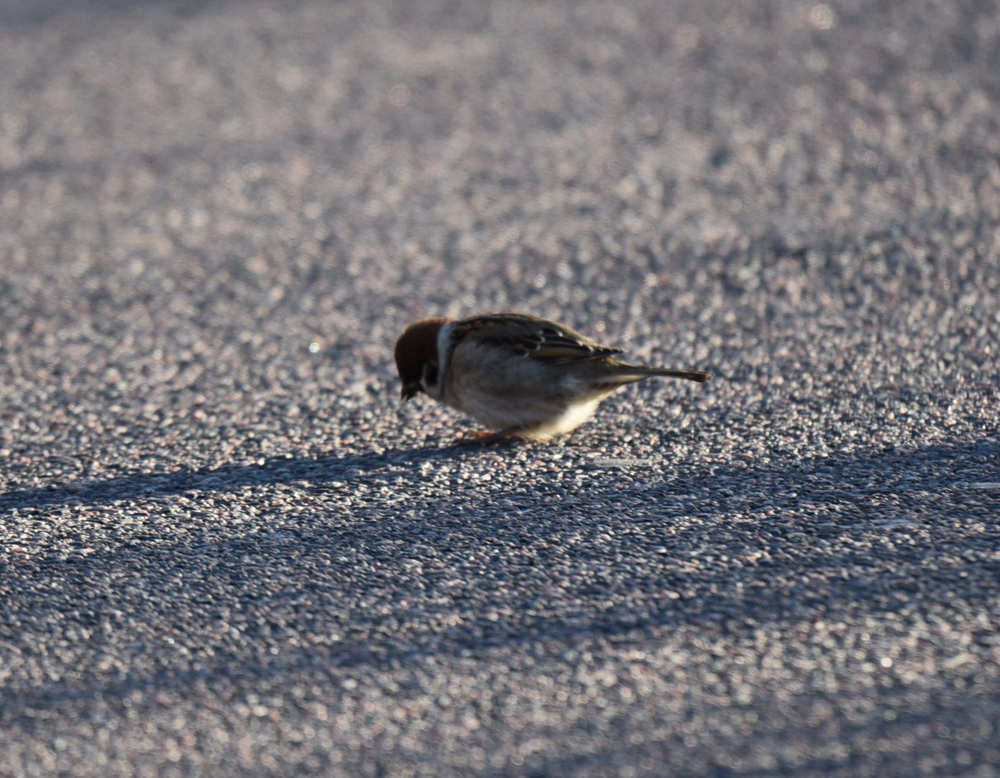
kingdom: Animalia
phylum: Chordata
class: Aves
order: Passeriformes
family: Passeridae
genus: Passer
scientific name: Passer montanus
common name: Eurasian tree sparrow
